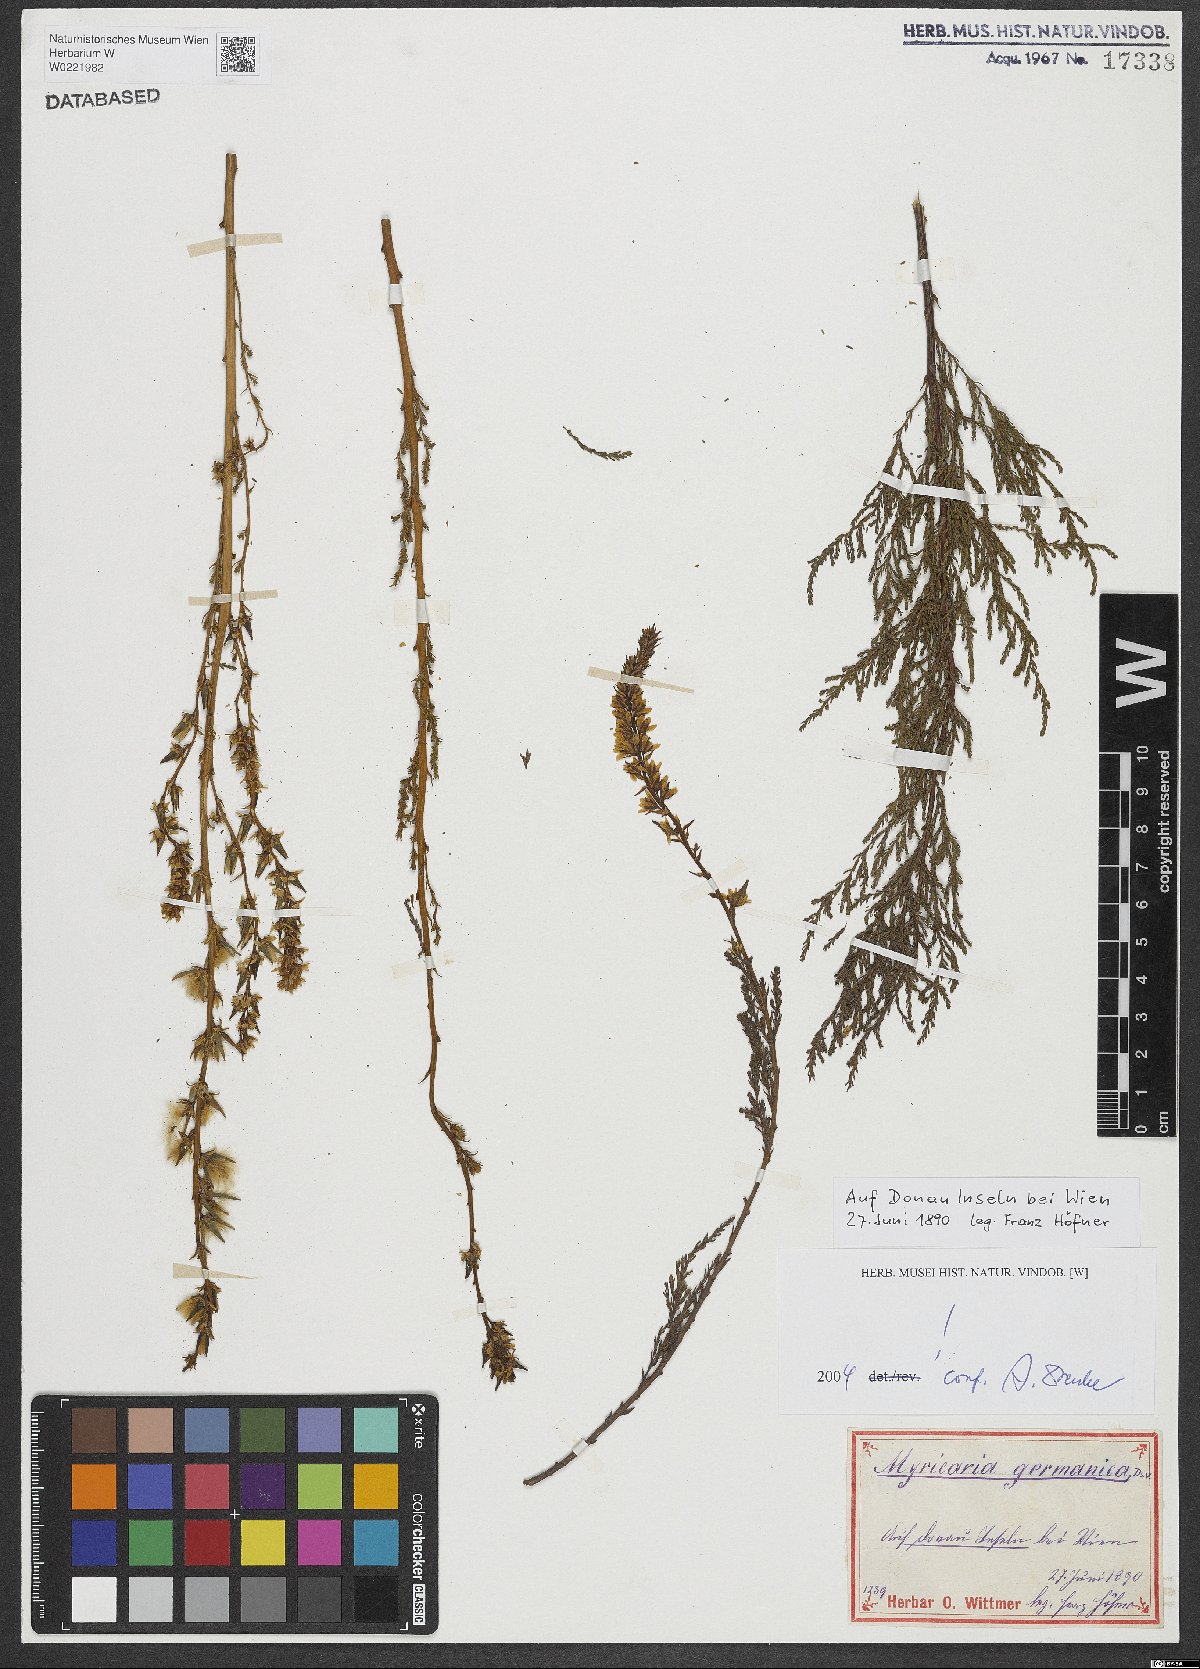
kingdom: Plantae
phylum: Tracheophyta
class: Magnoliopsida
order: Caryophyllales
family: Tamaricaceae
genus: Myricaria
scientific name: Myricaria germanica
